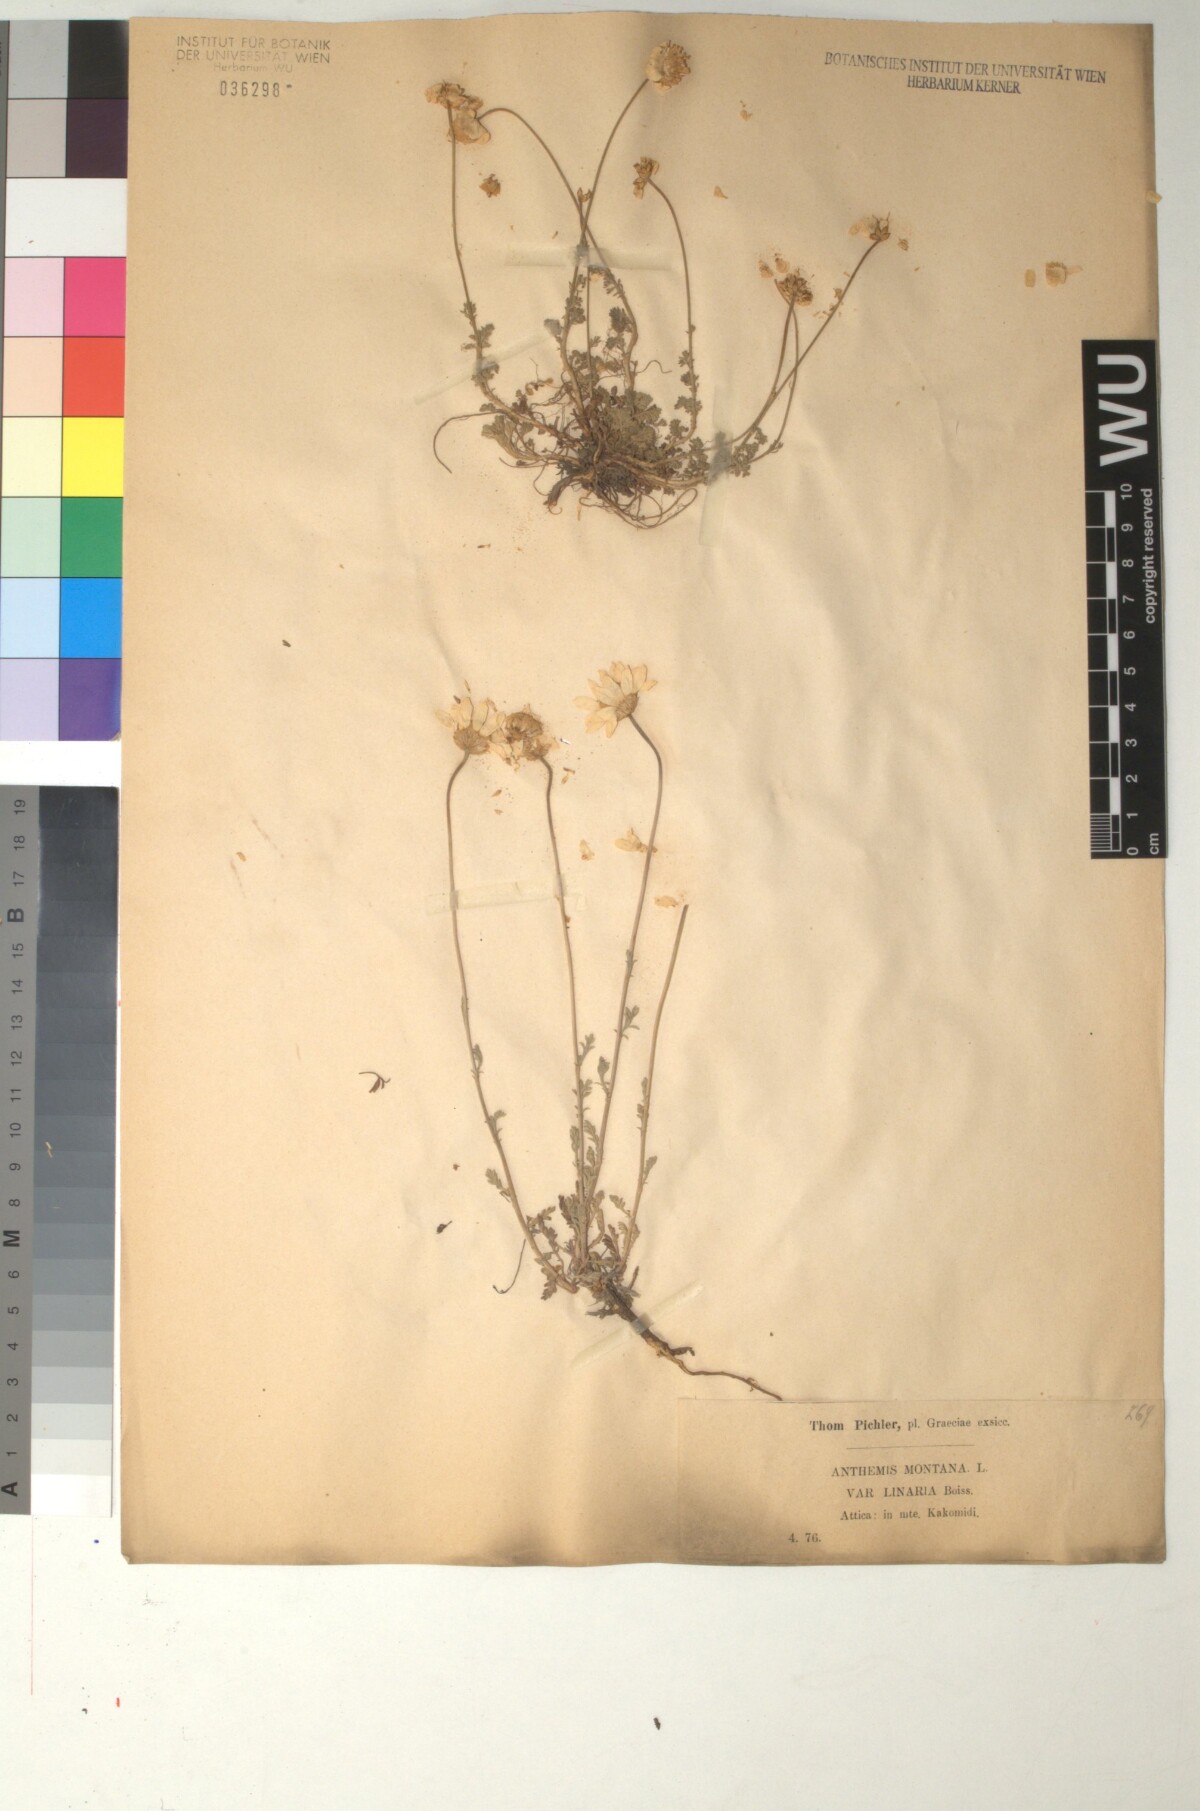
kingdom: Plantae
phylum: Tracheophyta
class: Magnoliopsida
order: Asterales
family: Asteraceae
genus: Anthemis
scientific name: Anthemis cretica
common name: Mountain dog-daisy
